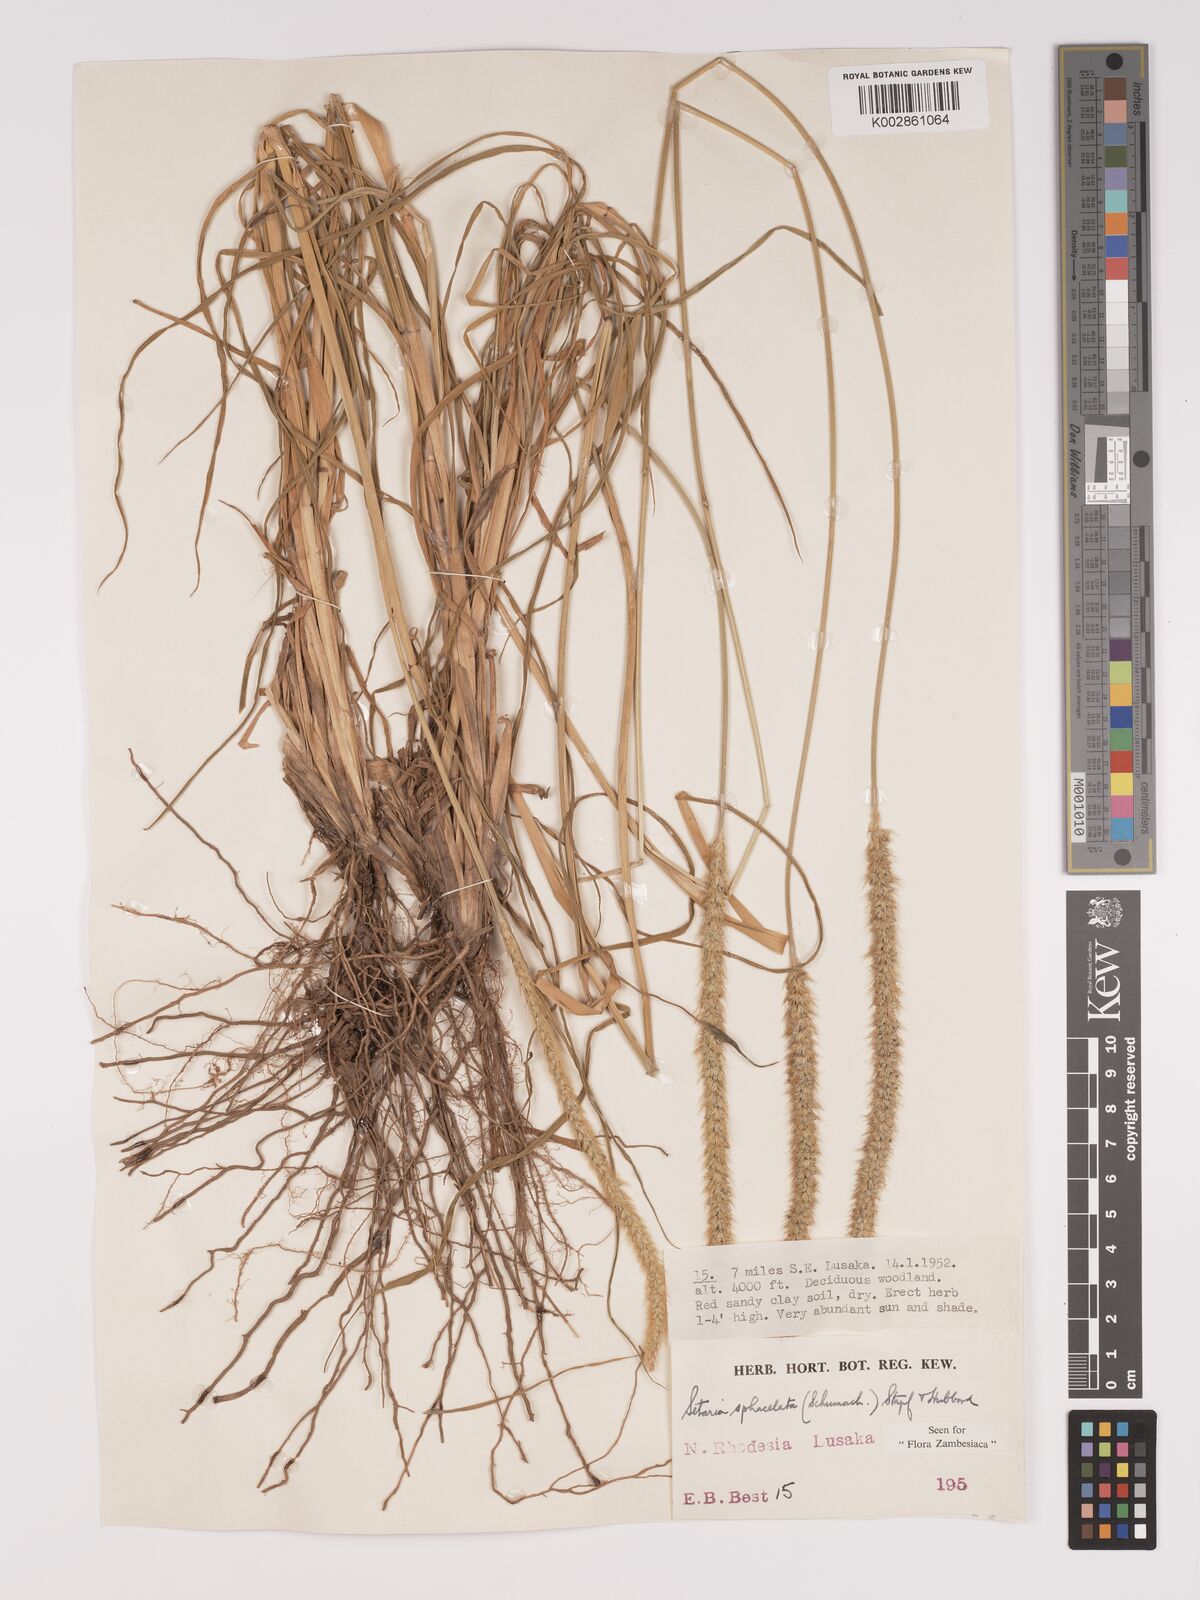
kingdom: Plantae
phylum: Tracheophyta
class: Liliopsida
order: Poales
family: Poaceae
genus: Setaria
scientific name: Setaria sphacelata
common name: African bristlegrass
